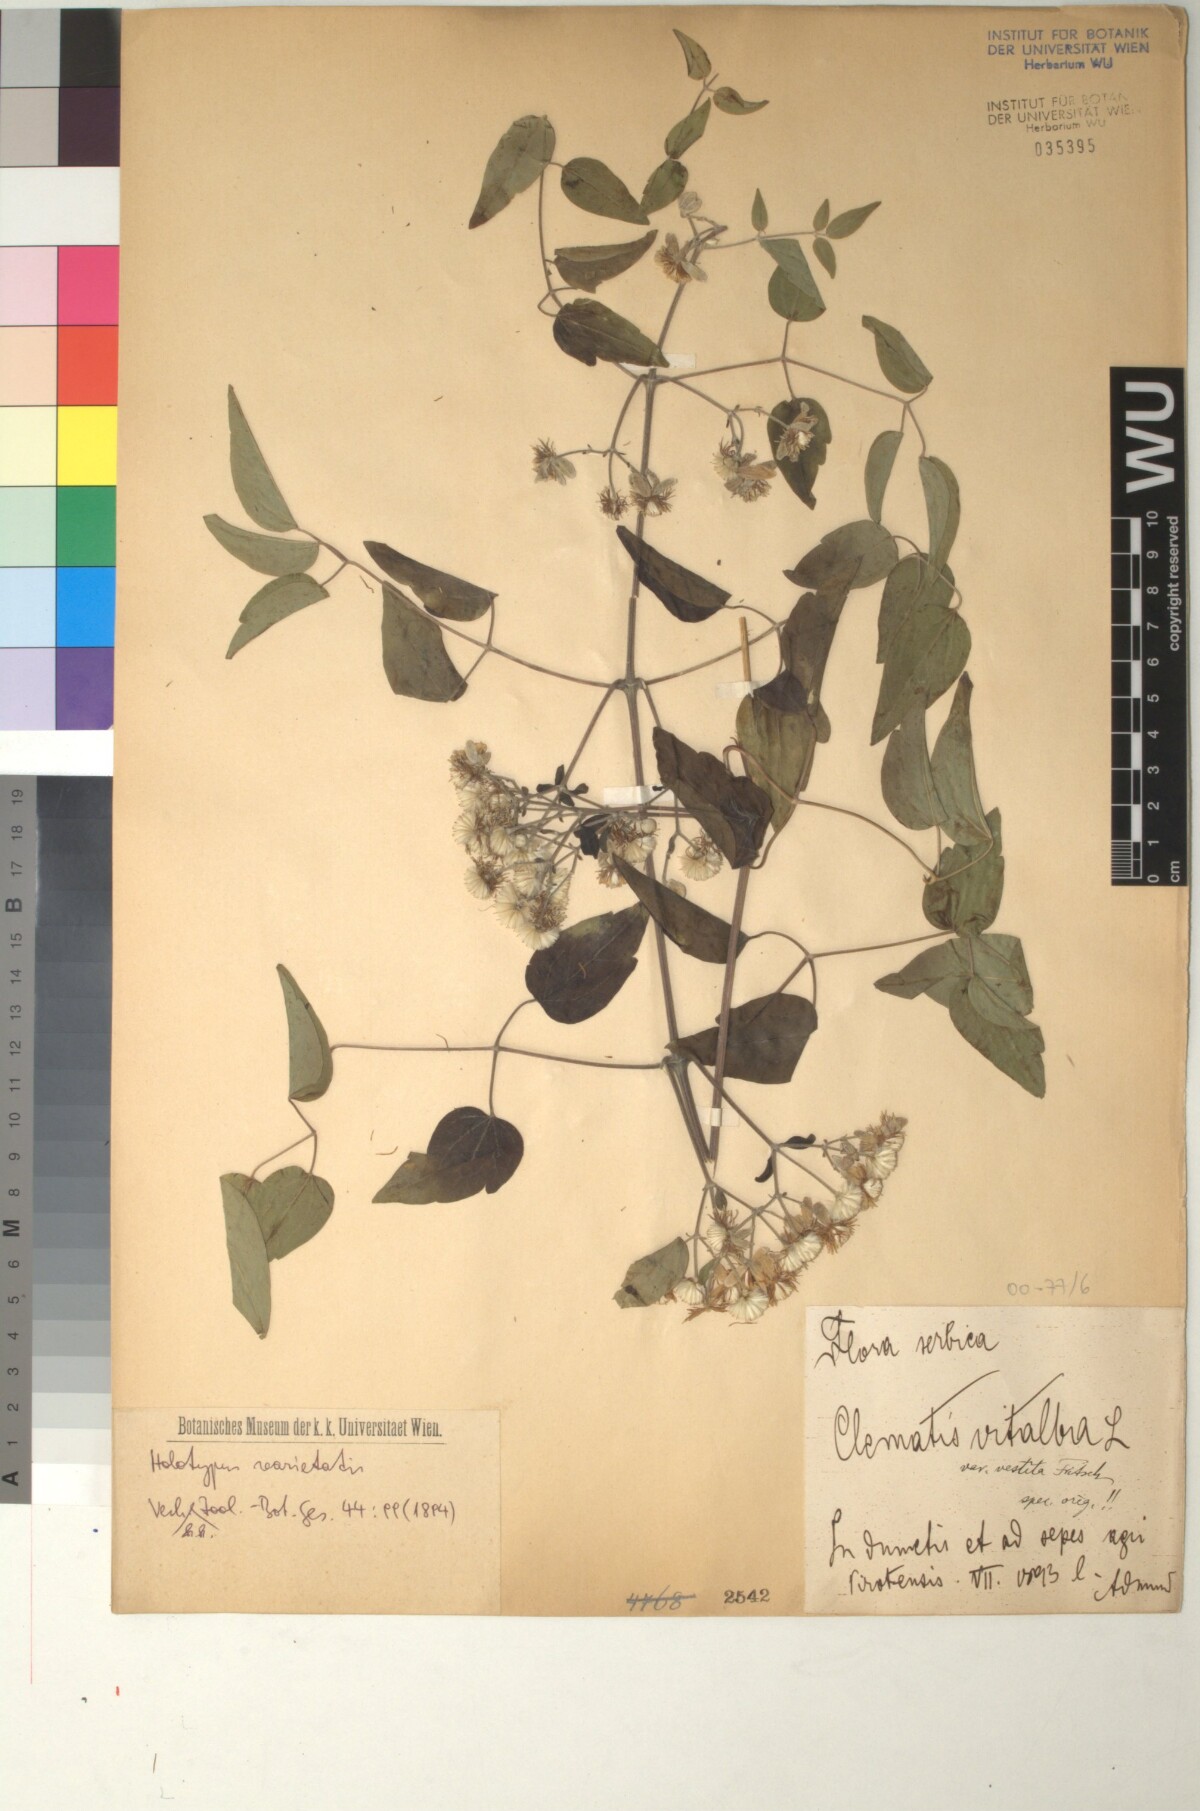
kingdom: Plantae
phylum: Tracheophyta
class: Magnoliopsida
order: Ranunculales
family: Ranunculaceae
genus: Clematis
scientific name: Clematis vitalba
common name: Evergreen clematis
